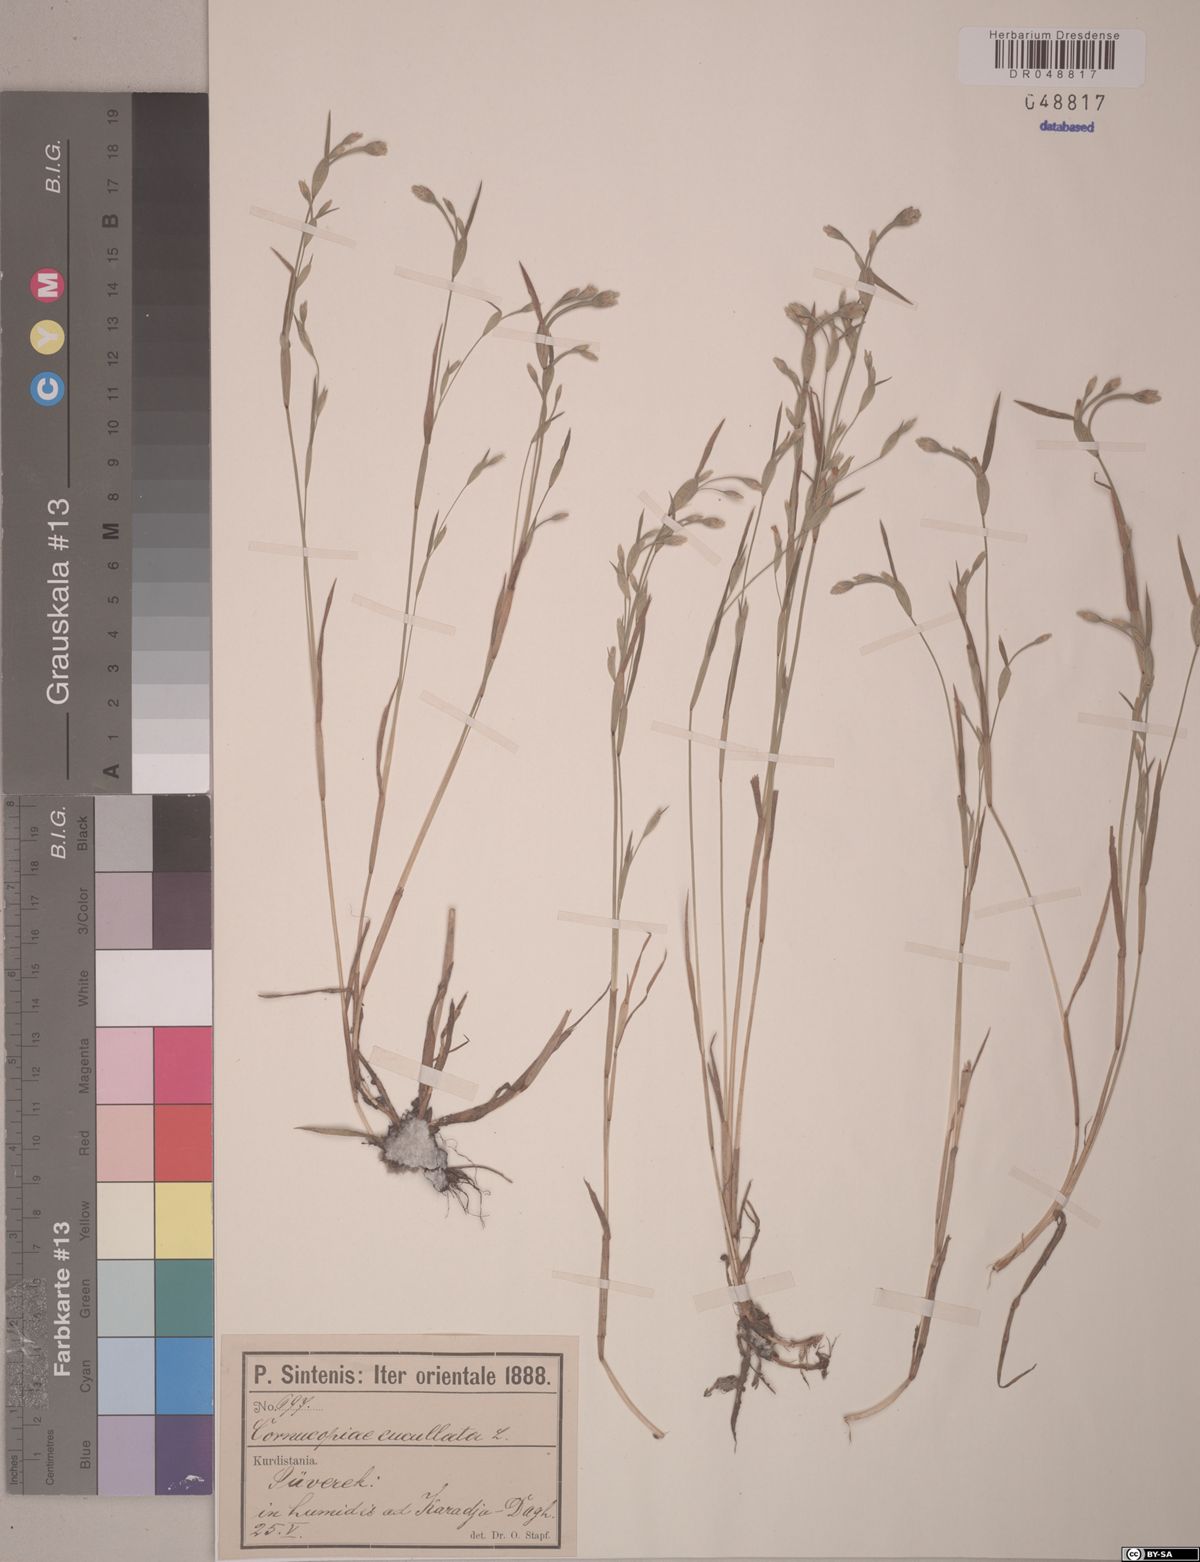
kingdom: Plantae
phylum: Tracheophyta
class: Liliopsida
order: Poales
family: Poaceae
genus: Cornucopiae
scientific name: Cornucopiae cucullatum
